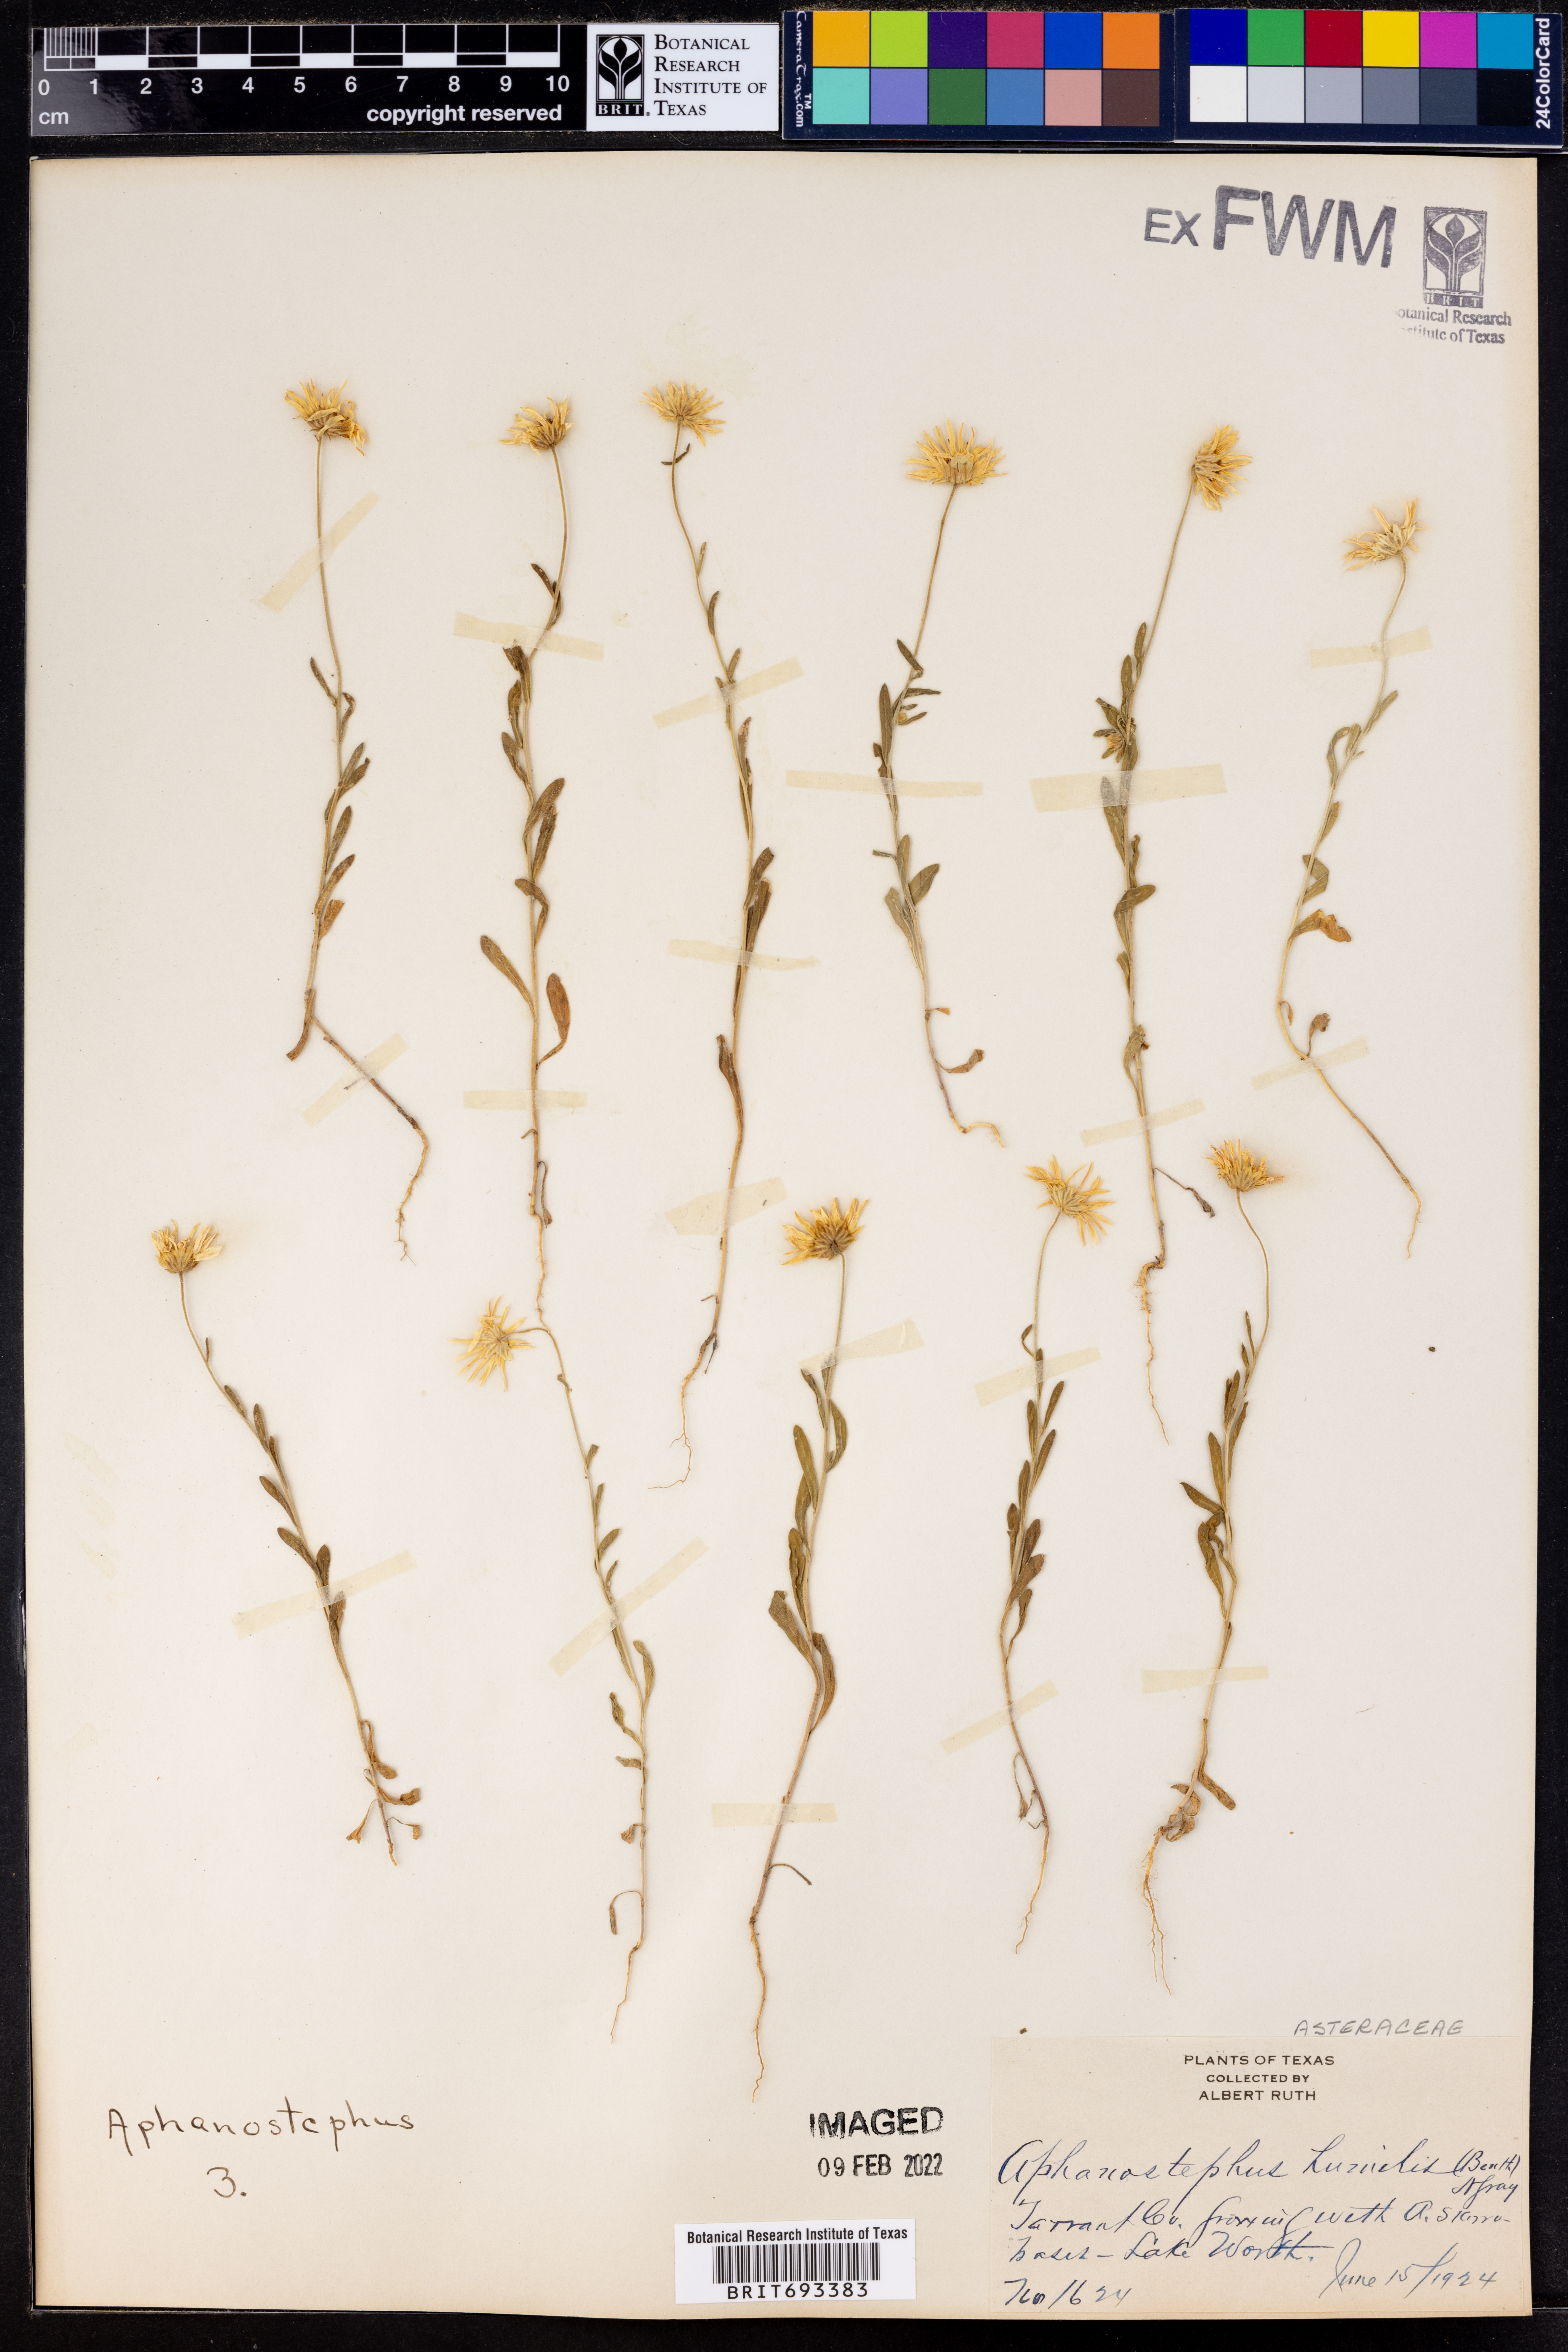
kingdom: Plantae
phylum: Tracheophyta
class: Magnoliopsida
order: Asterales
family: Asteraceae
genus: Aphanostephus
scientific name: Aphanostephus ramosissimus
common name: Plains lazy daisy
